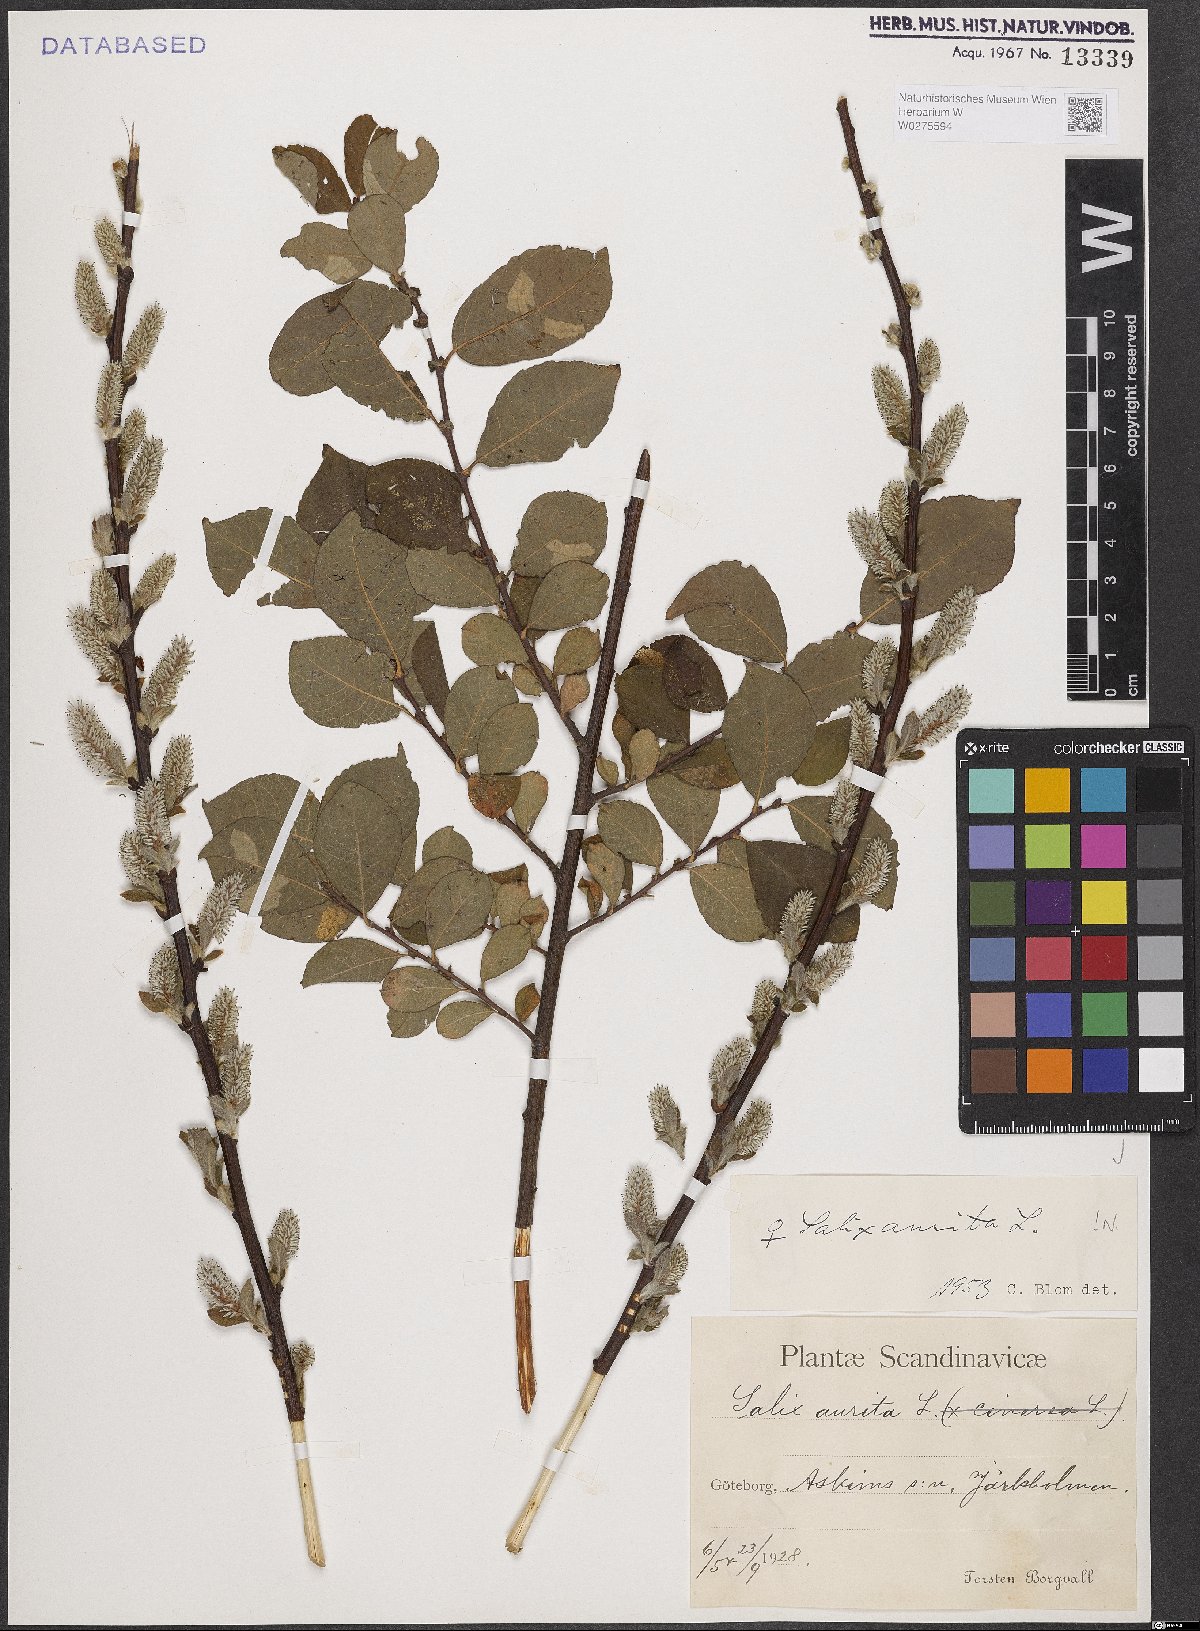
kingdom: Plantae
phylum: Tracheophyta
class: Magnoliopsida
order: Malpighiales
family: Salicaceae
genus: Salix
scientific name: Salix aurita
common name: Eared willow
